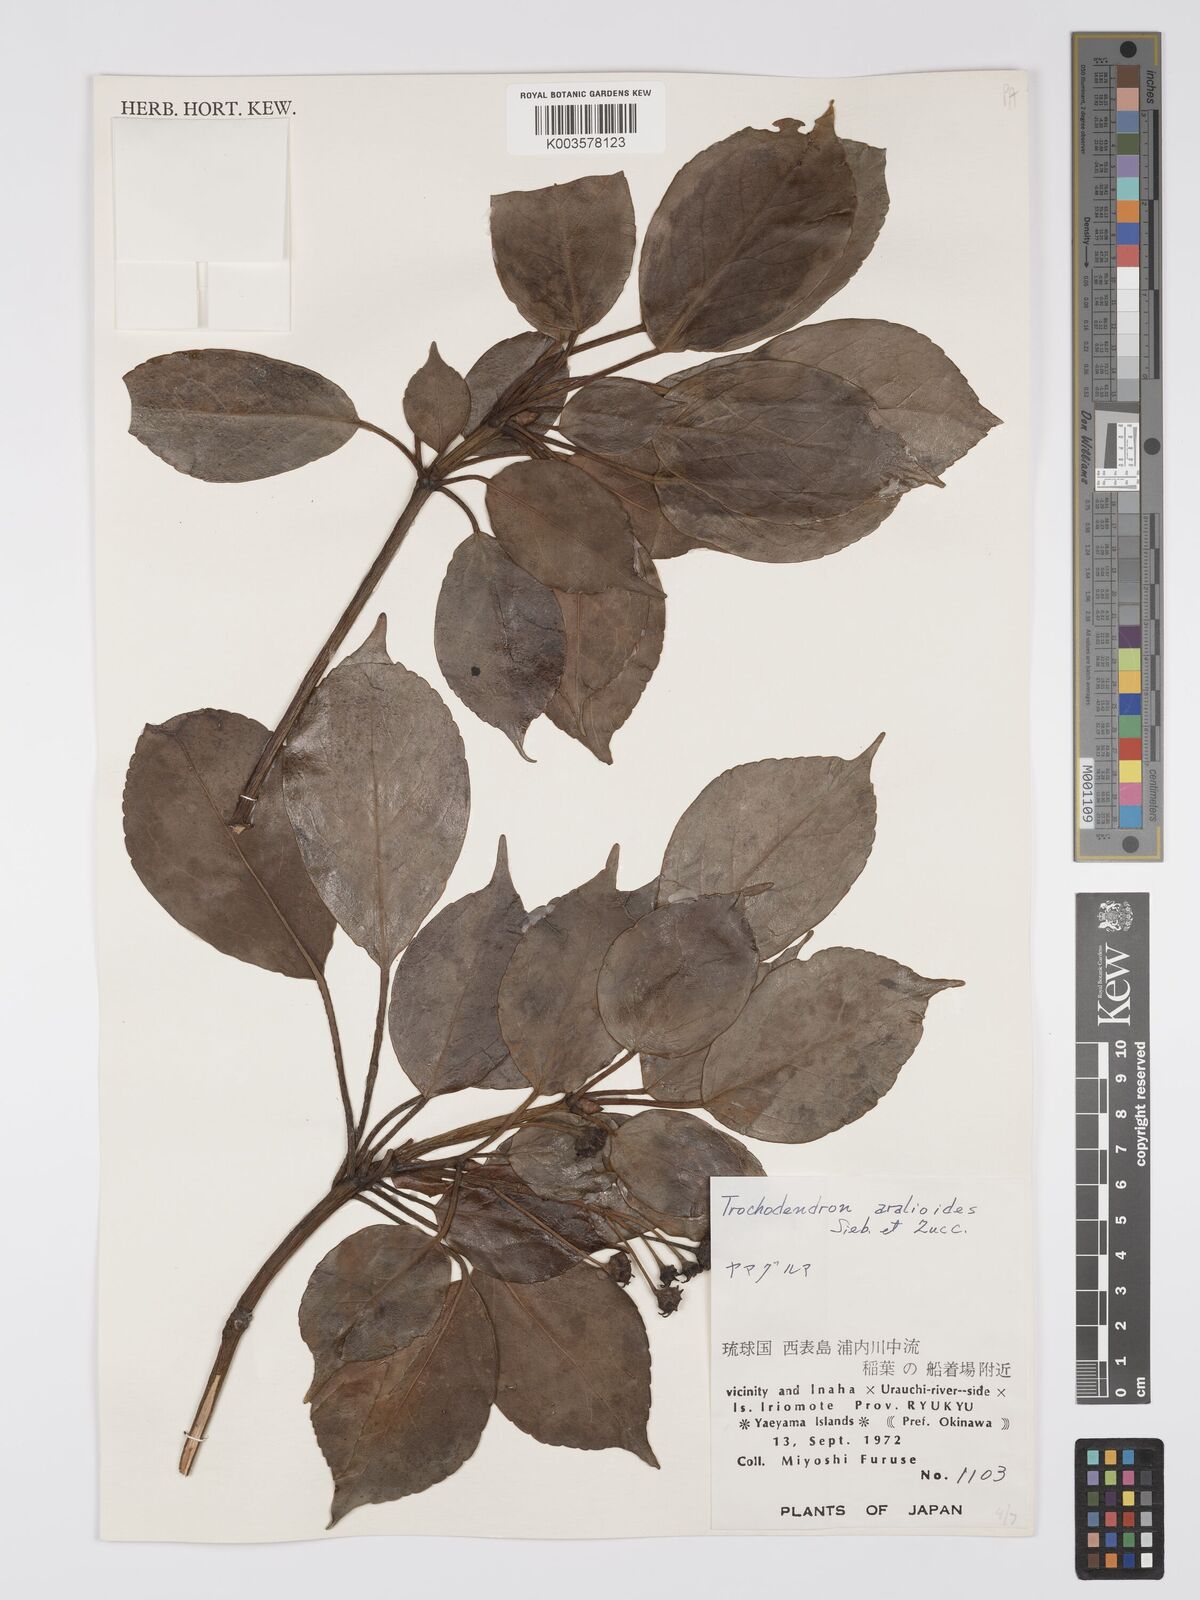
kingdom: Plantae
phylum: Tracheophyta
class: Magnoliopsida
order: Trochodendrales
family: Trochodendraceae
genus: Trochodendron
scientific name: Trochodendron aralioides
